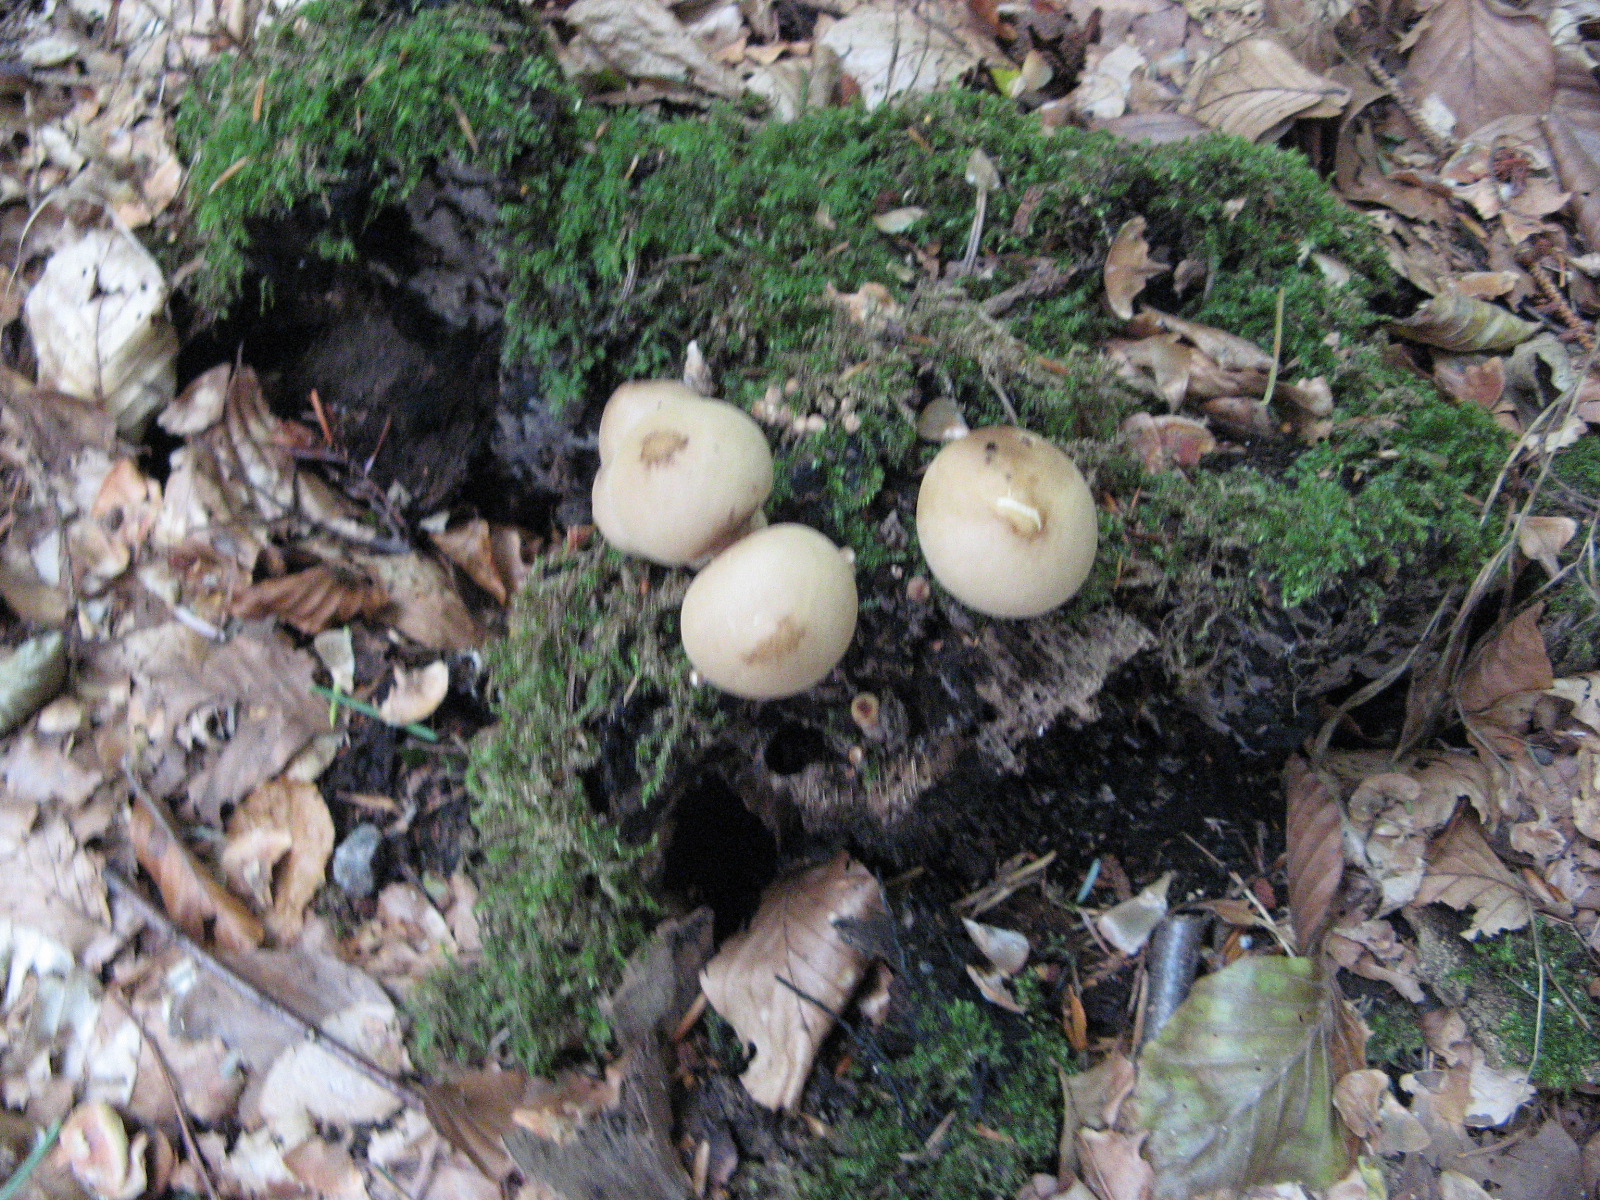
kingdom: Fungi
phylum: Basidiomycota
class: Agaricomycetes
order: Agaricales
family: Lycoperdaceae
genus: Apioperdon
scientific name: Apioperdon pyriforme
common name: pære-støvbold
